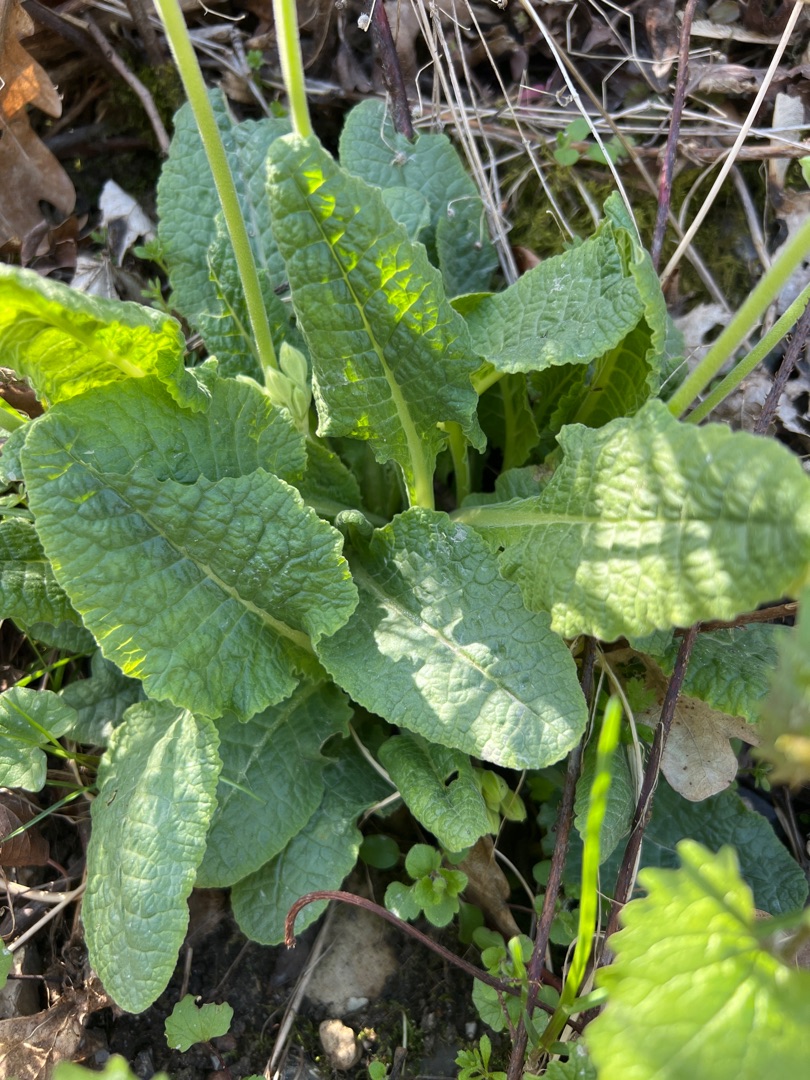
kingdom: Plantae
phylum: Tracheophyta
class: Magnoliopsida
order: Ericales
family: Primulaceae
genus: Primula
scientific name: Primula veris
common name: Hulkravet kodriver
